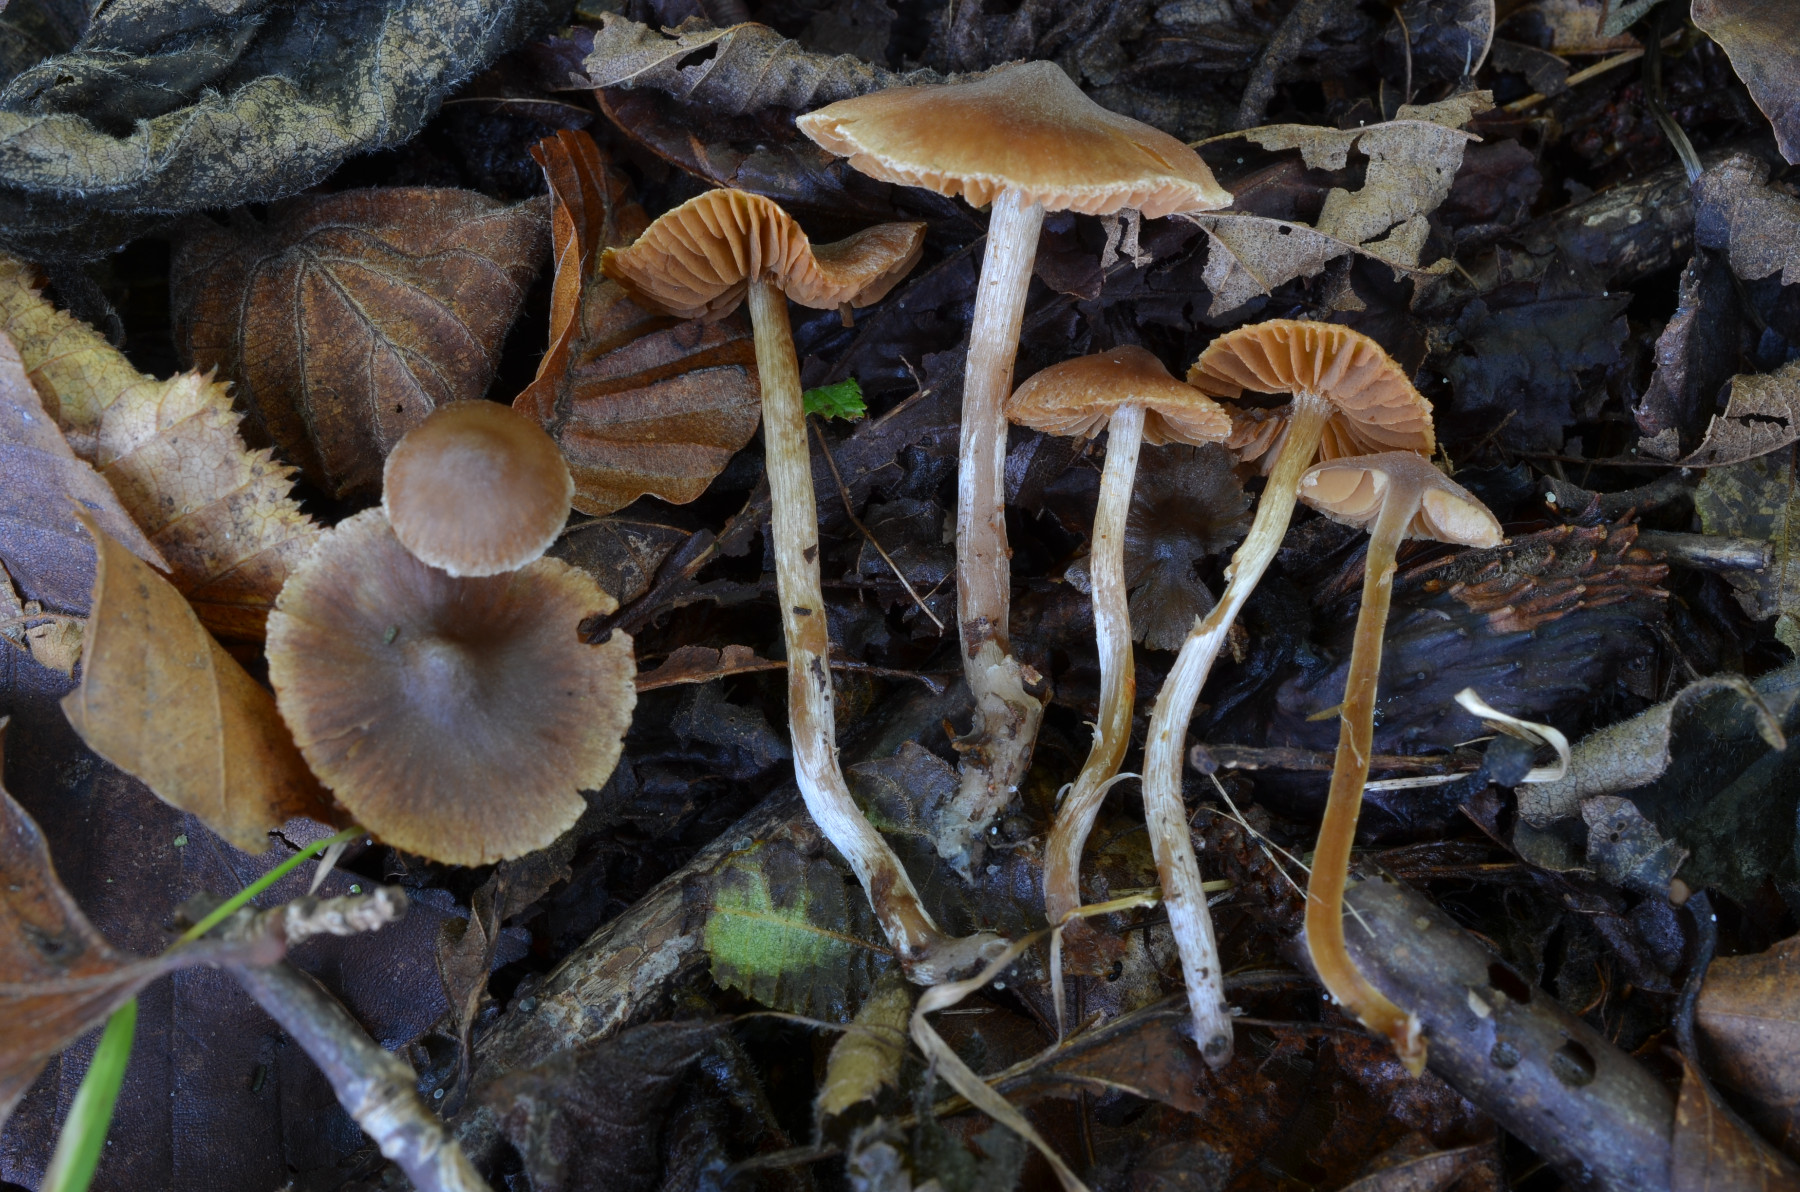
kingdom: Fungi
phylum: Basidiomycota
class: Agaricomycetes
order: Agaricales
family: Cortinariaceae
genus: Cortinarius
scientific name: Cortinarius pilatii
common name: Piláts slørhat
